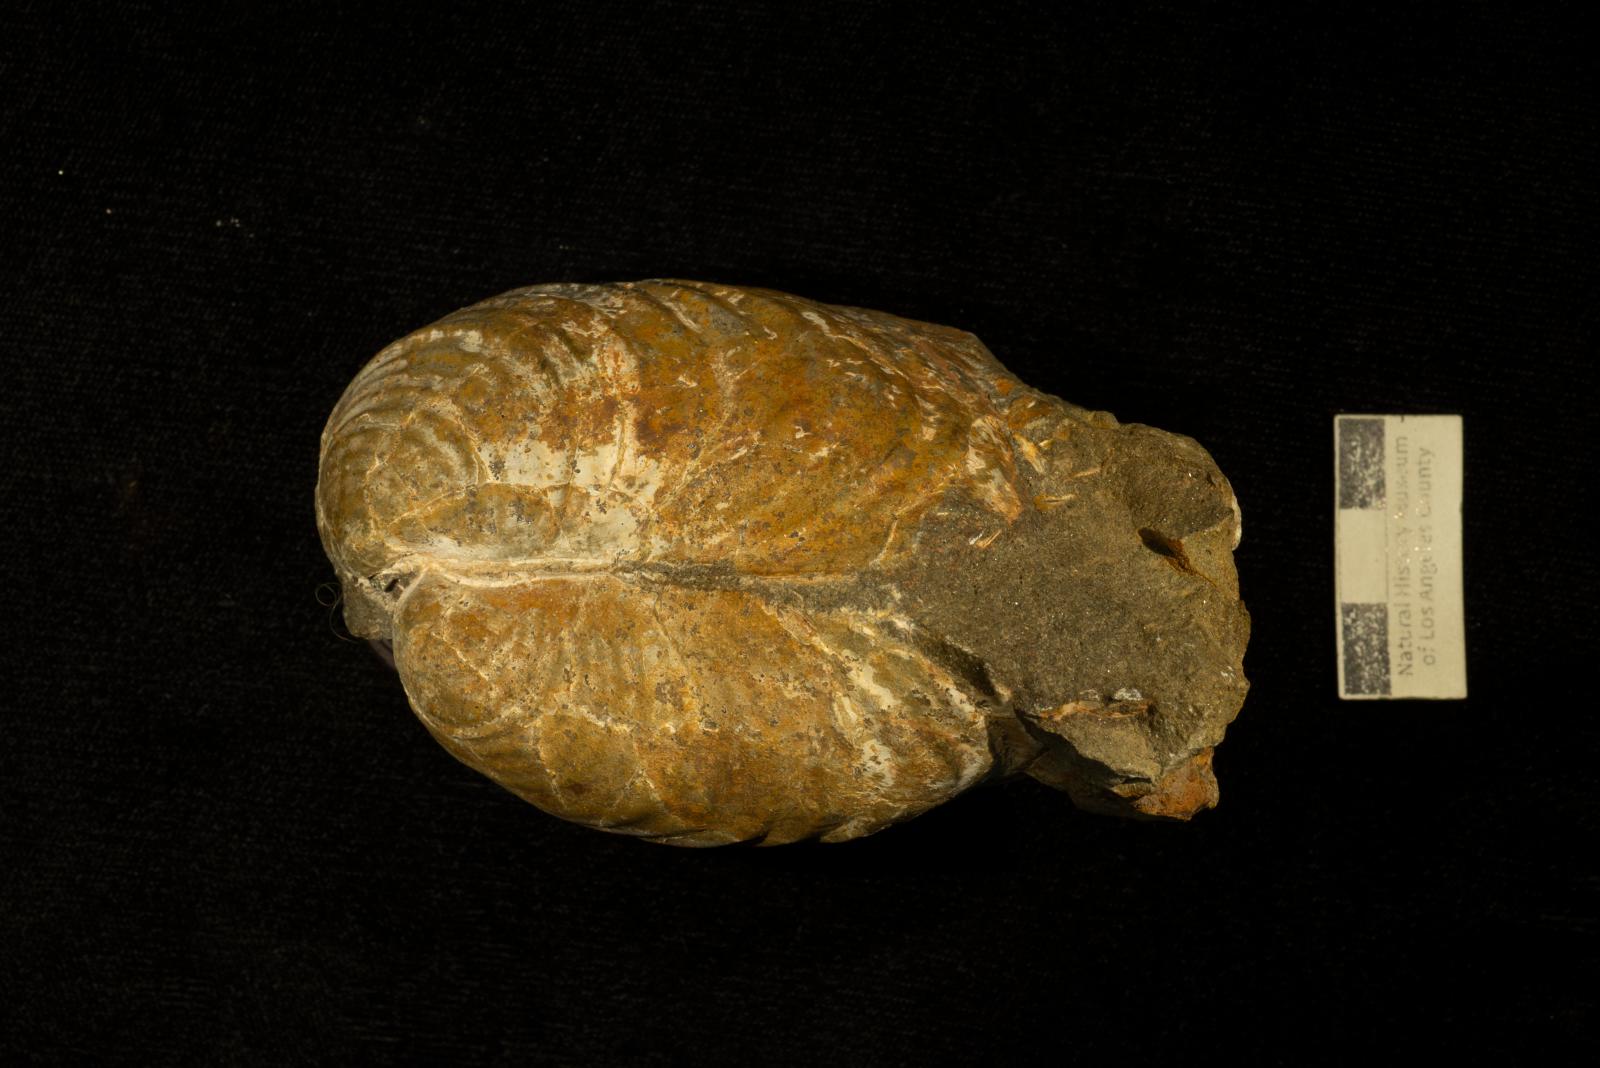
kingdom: Animalia
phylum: Mollusca
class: Bivalvia
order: Myalinida
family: Inoceramidae
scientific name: Inoceramidae
